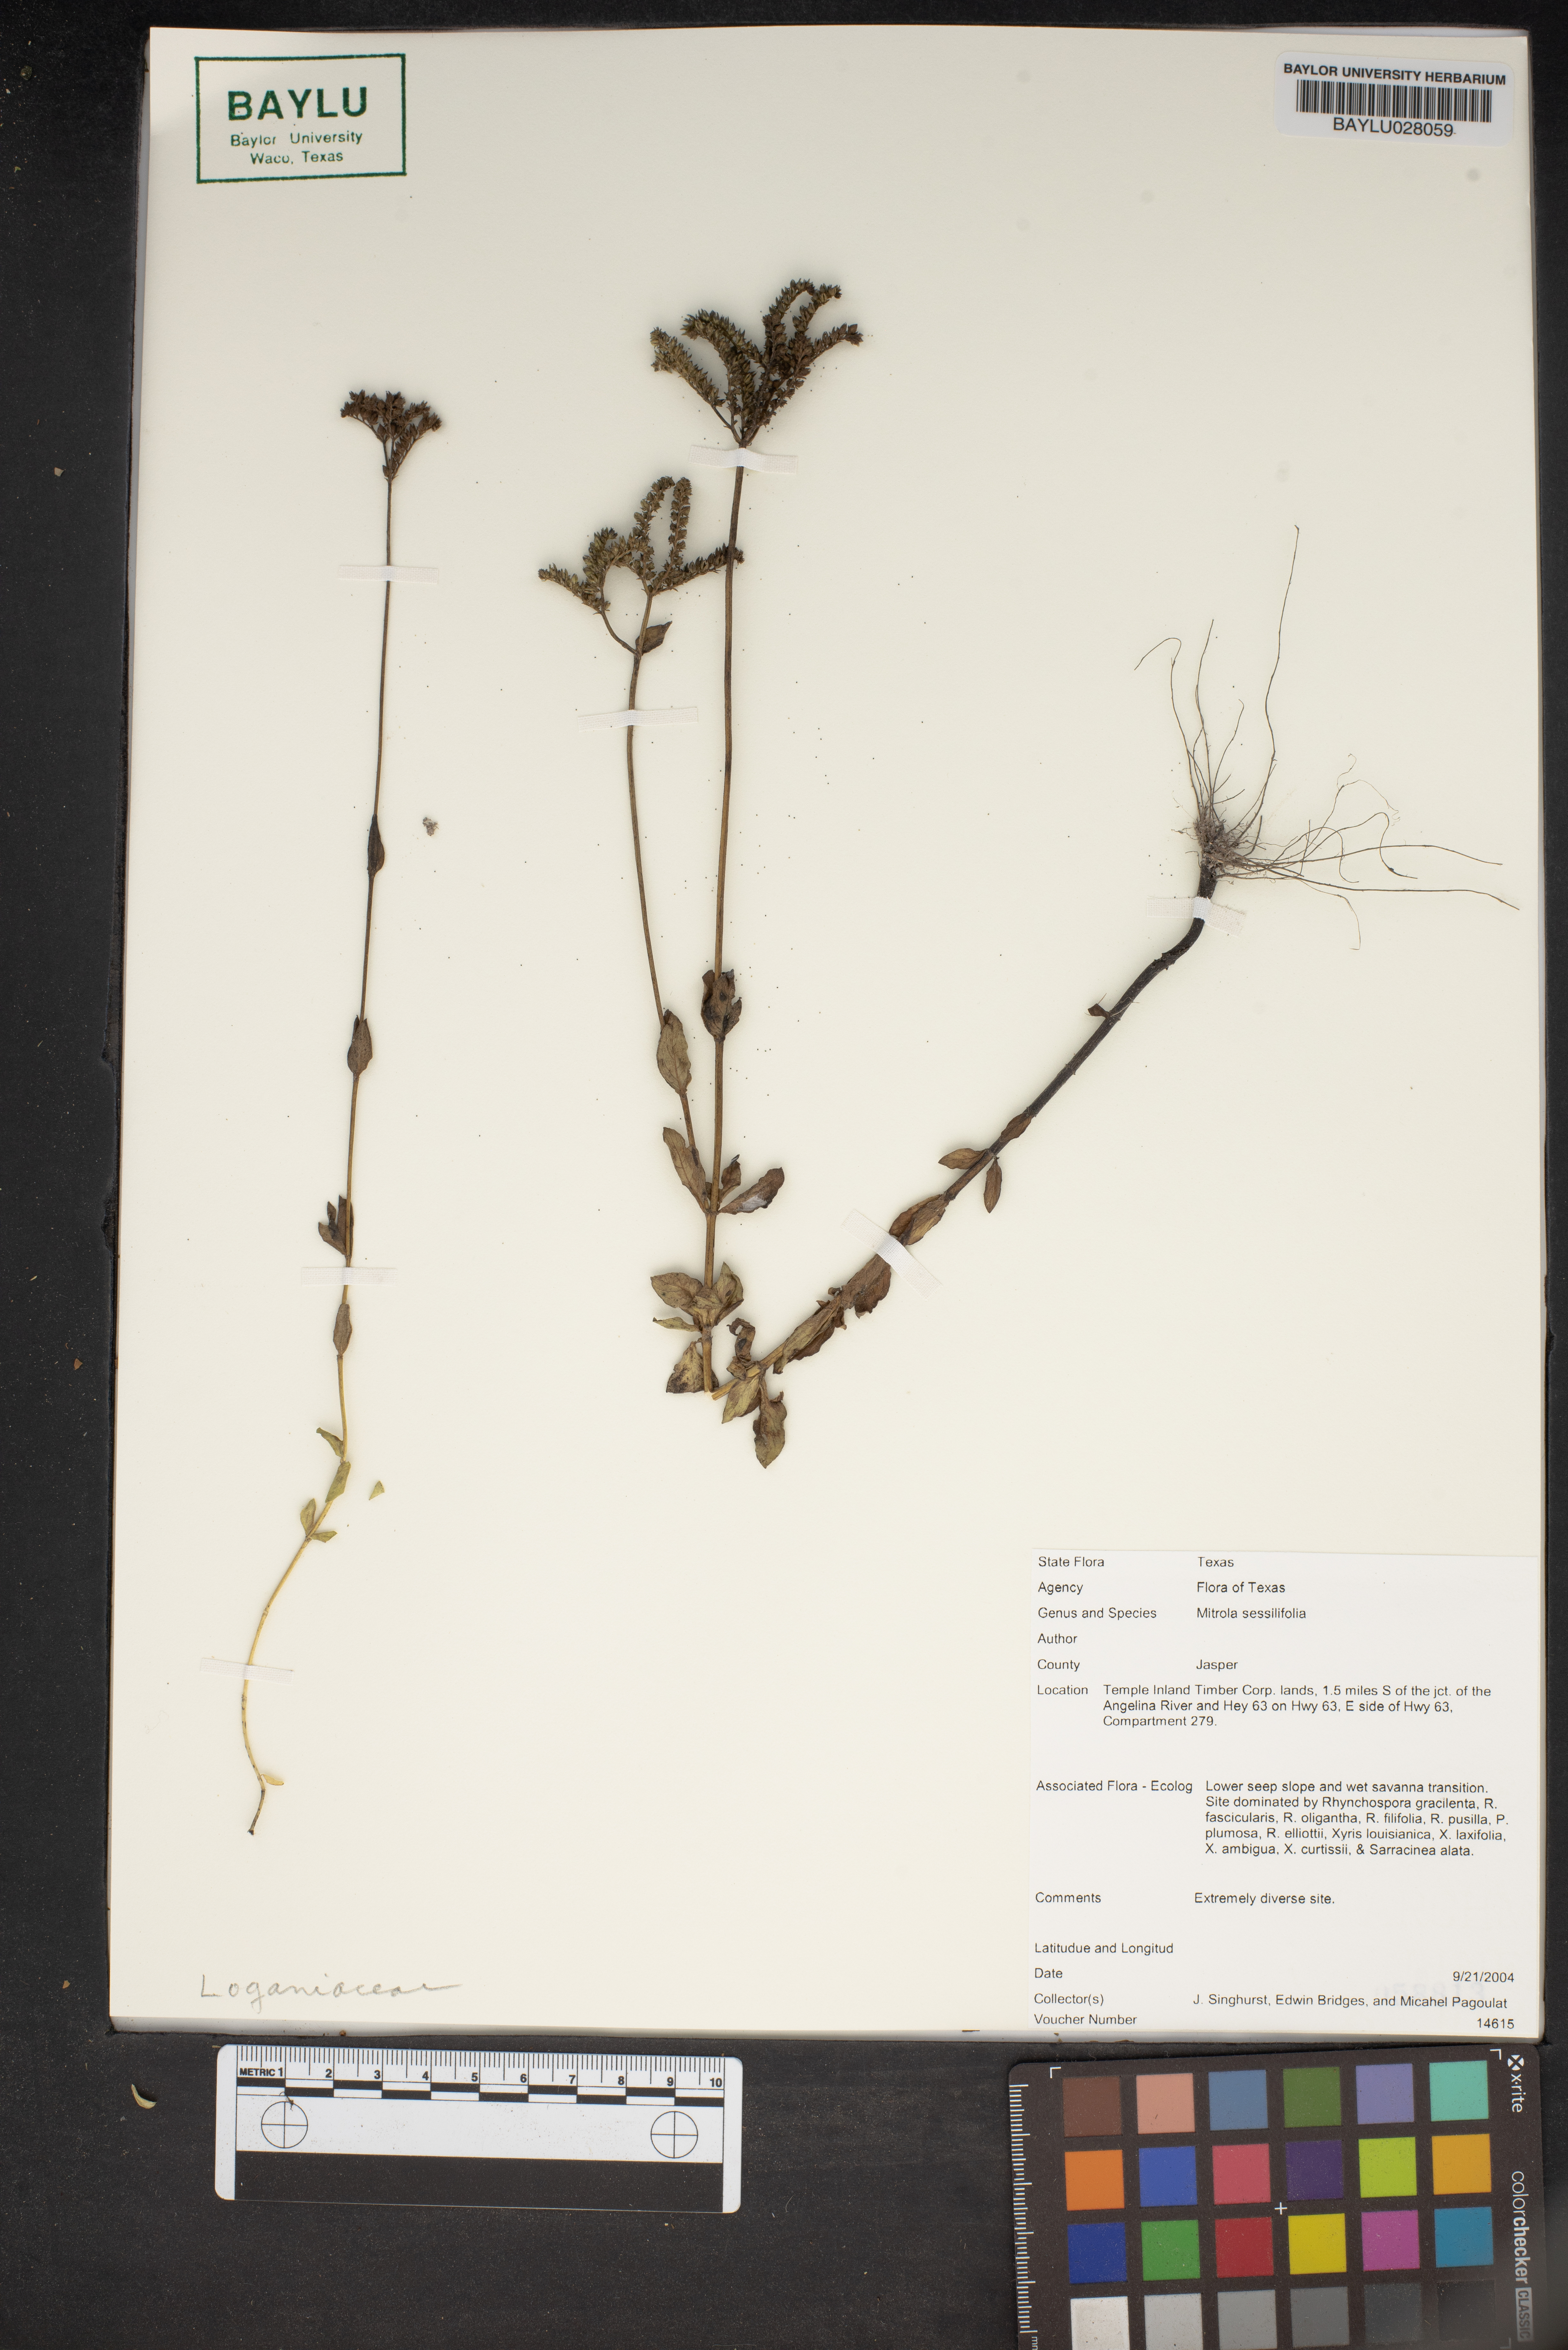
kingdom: Plantae
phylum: Tracheophyta
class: Magnoliopsida
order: Gentianales
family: Loganiaceae
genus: Mitreola
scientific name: Mitreola sessilifolia
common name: Swamp hornpod
